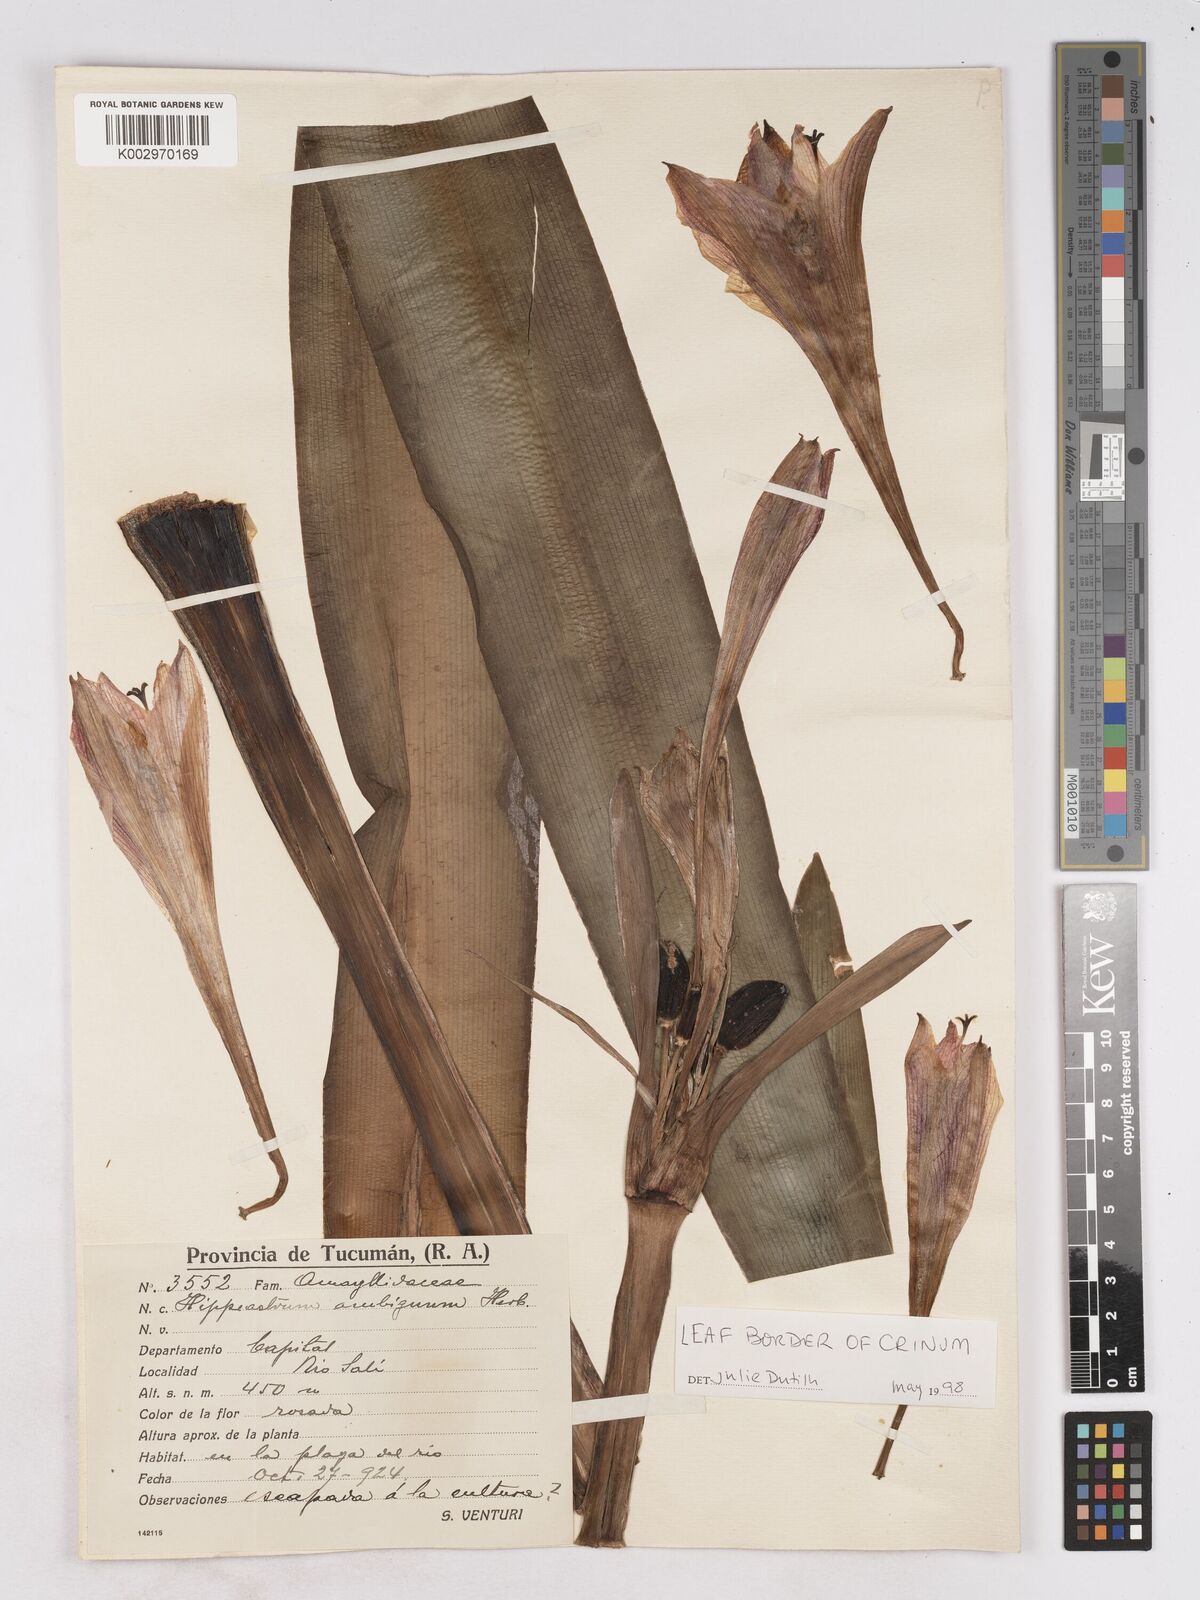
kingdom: Plantae
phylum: Tracheophyta
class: Liliopsida
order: Asparagales
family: Amaryllidaceae
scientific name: Amaryllidaceae
